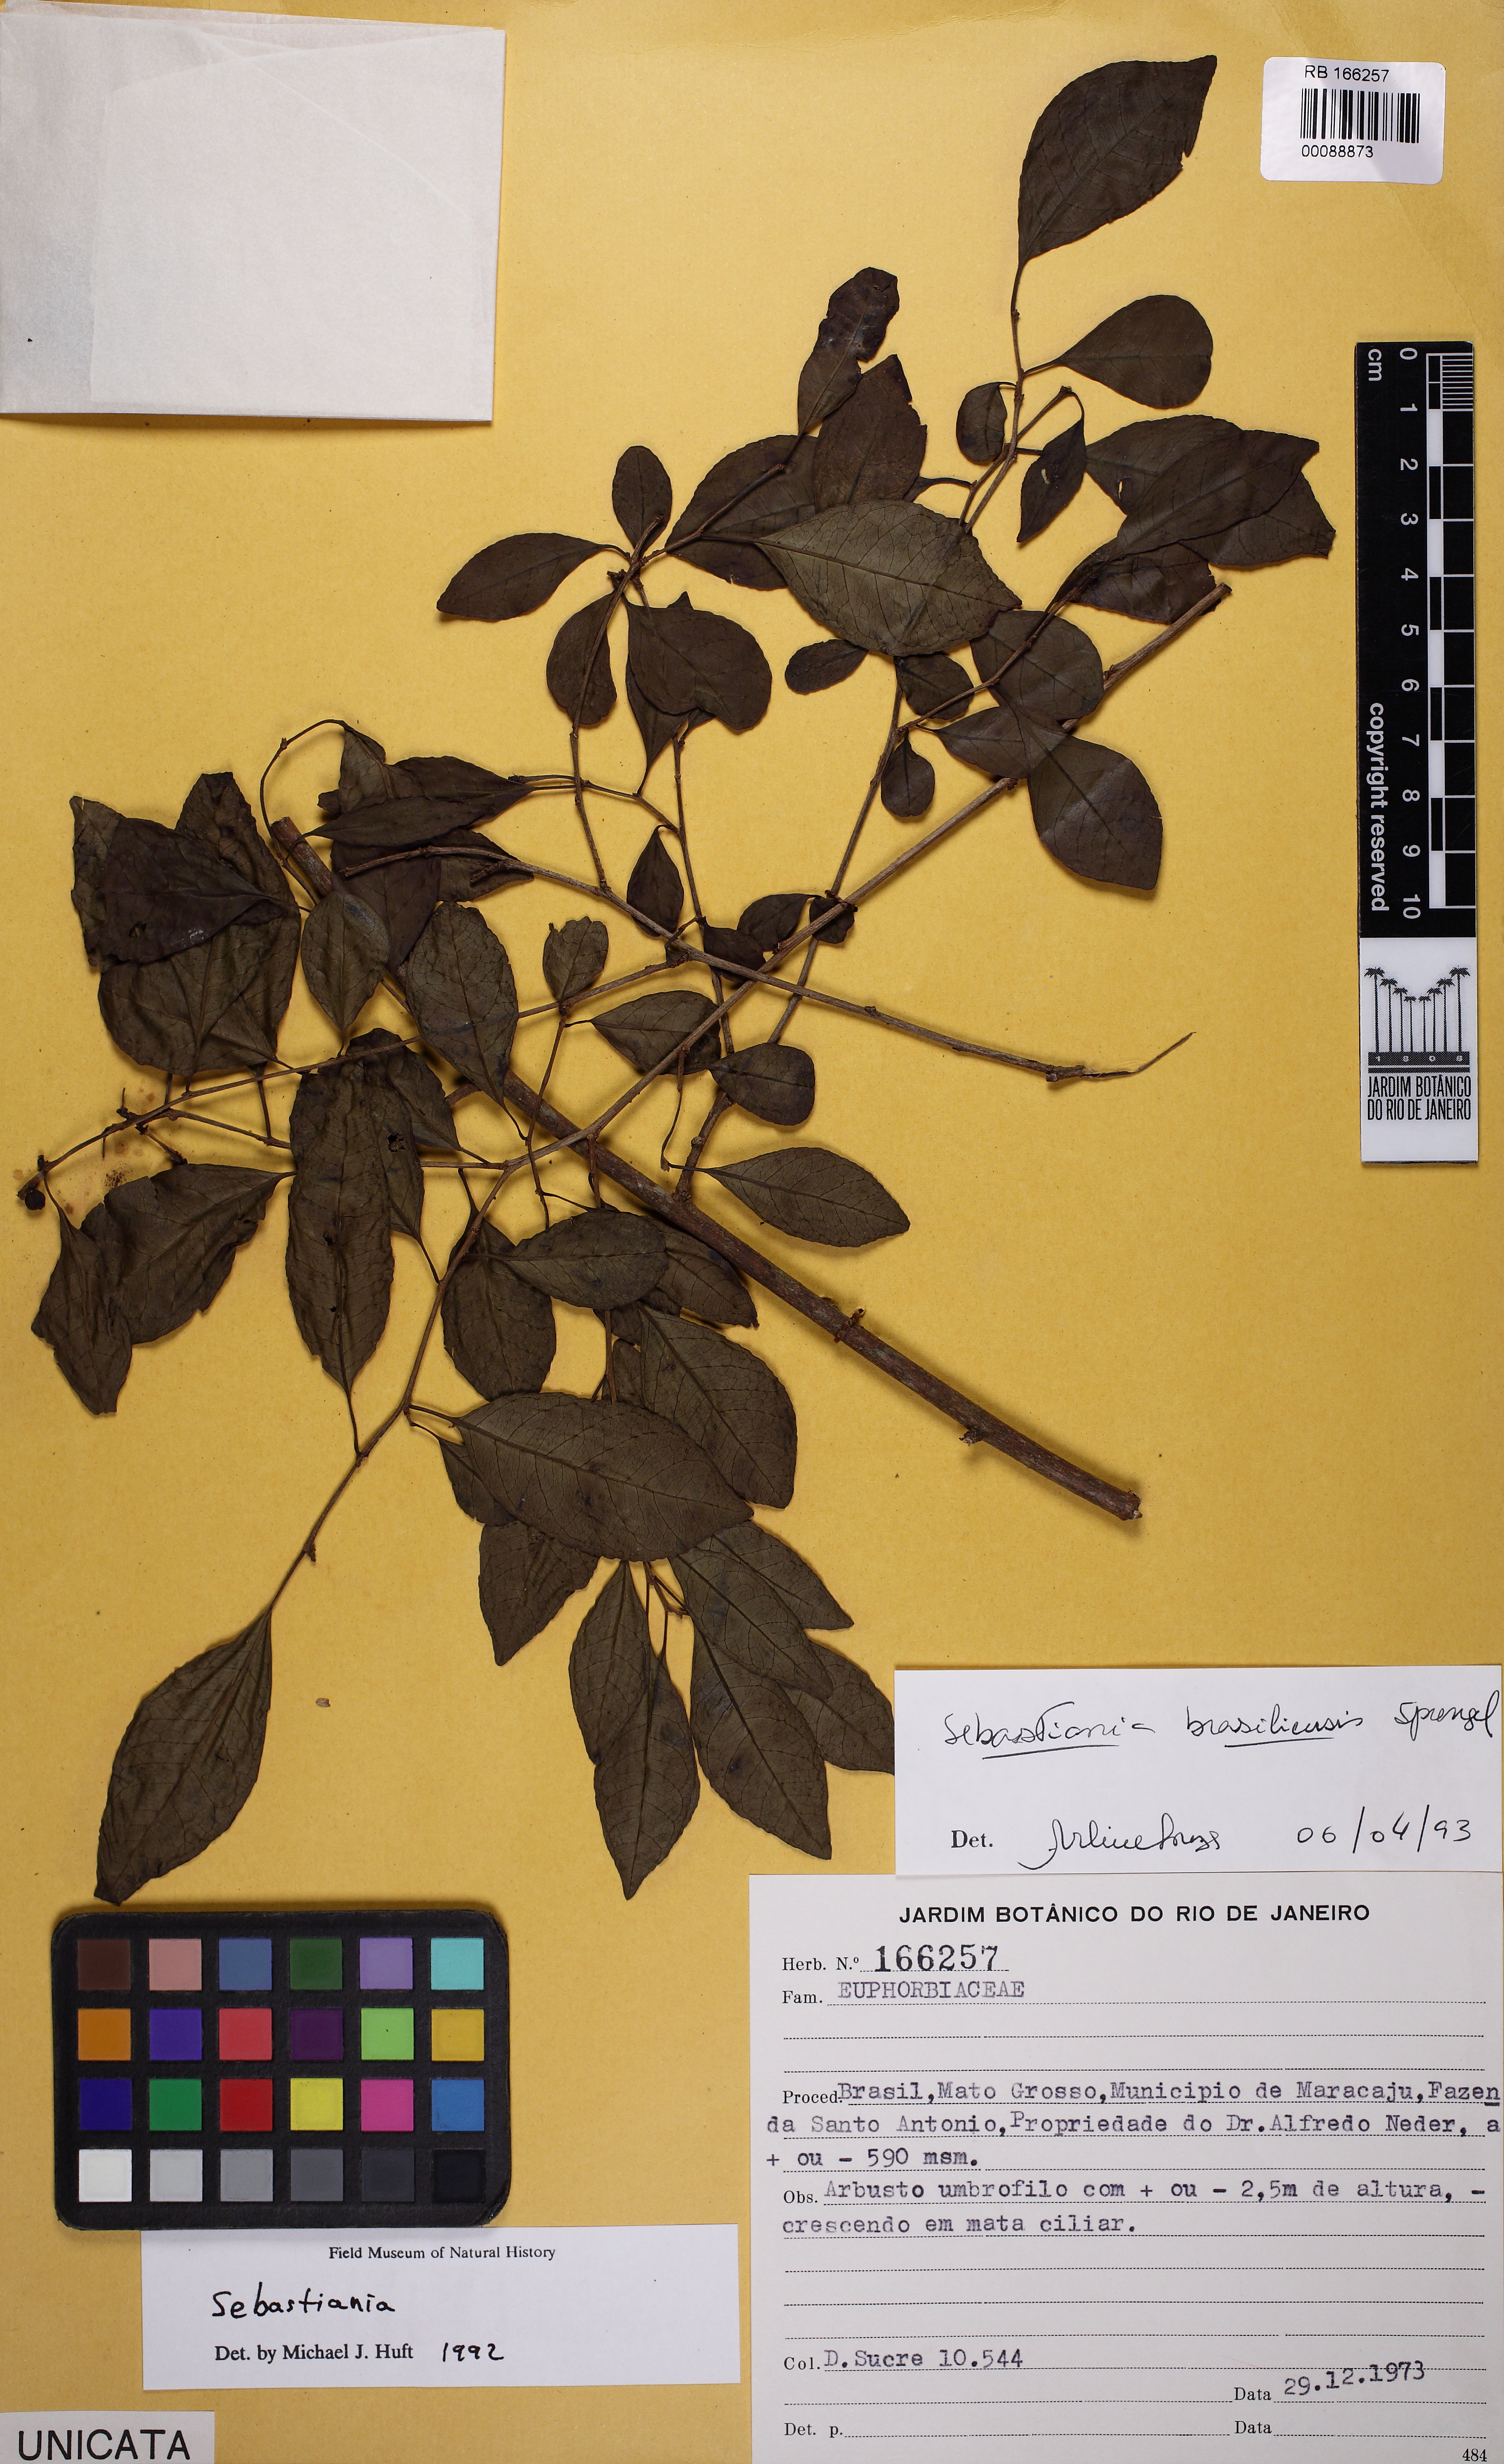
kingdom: Plantae
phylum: Tracheophyta
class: Magnoliopsida
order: Malpighiales
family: Euphorbiaceae
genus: Sebastiania
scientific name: Sebastiania brasiliensis
